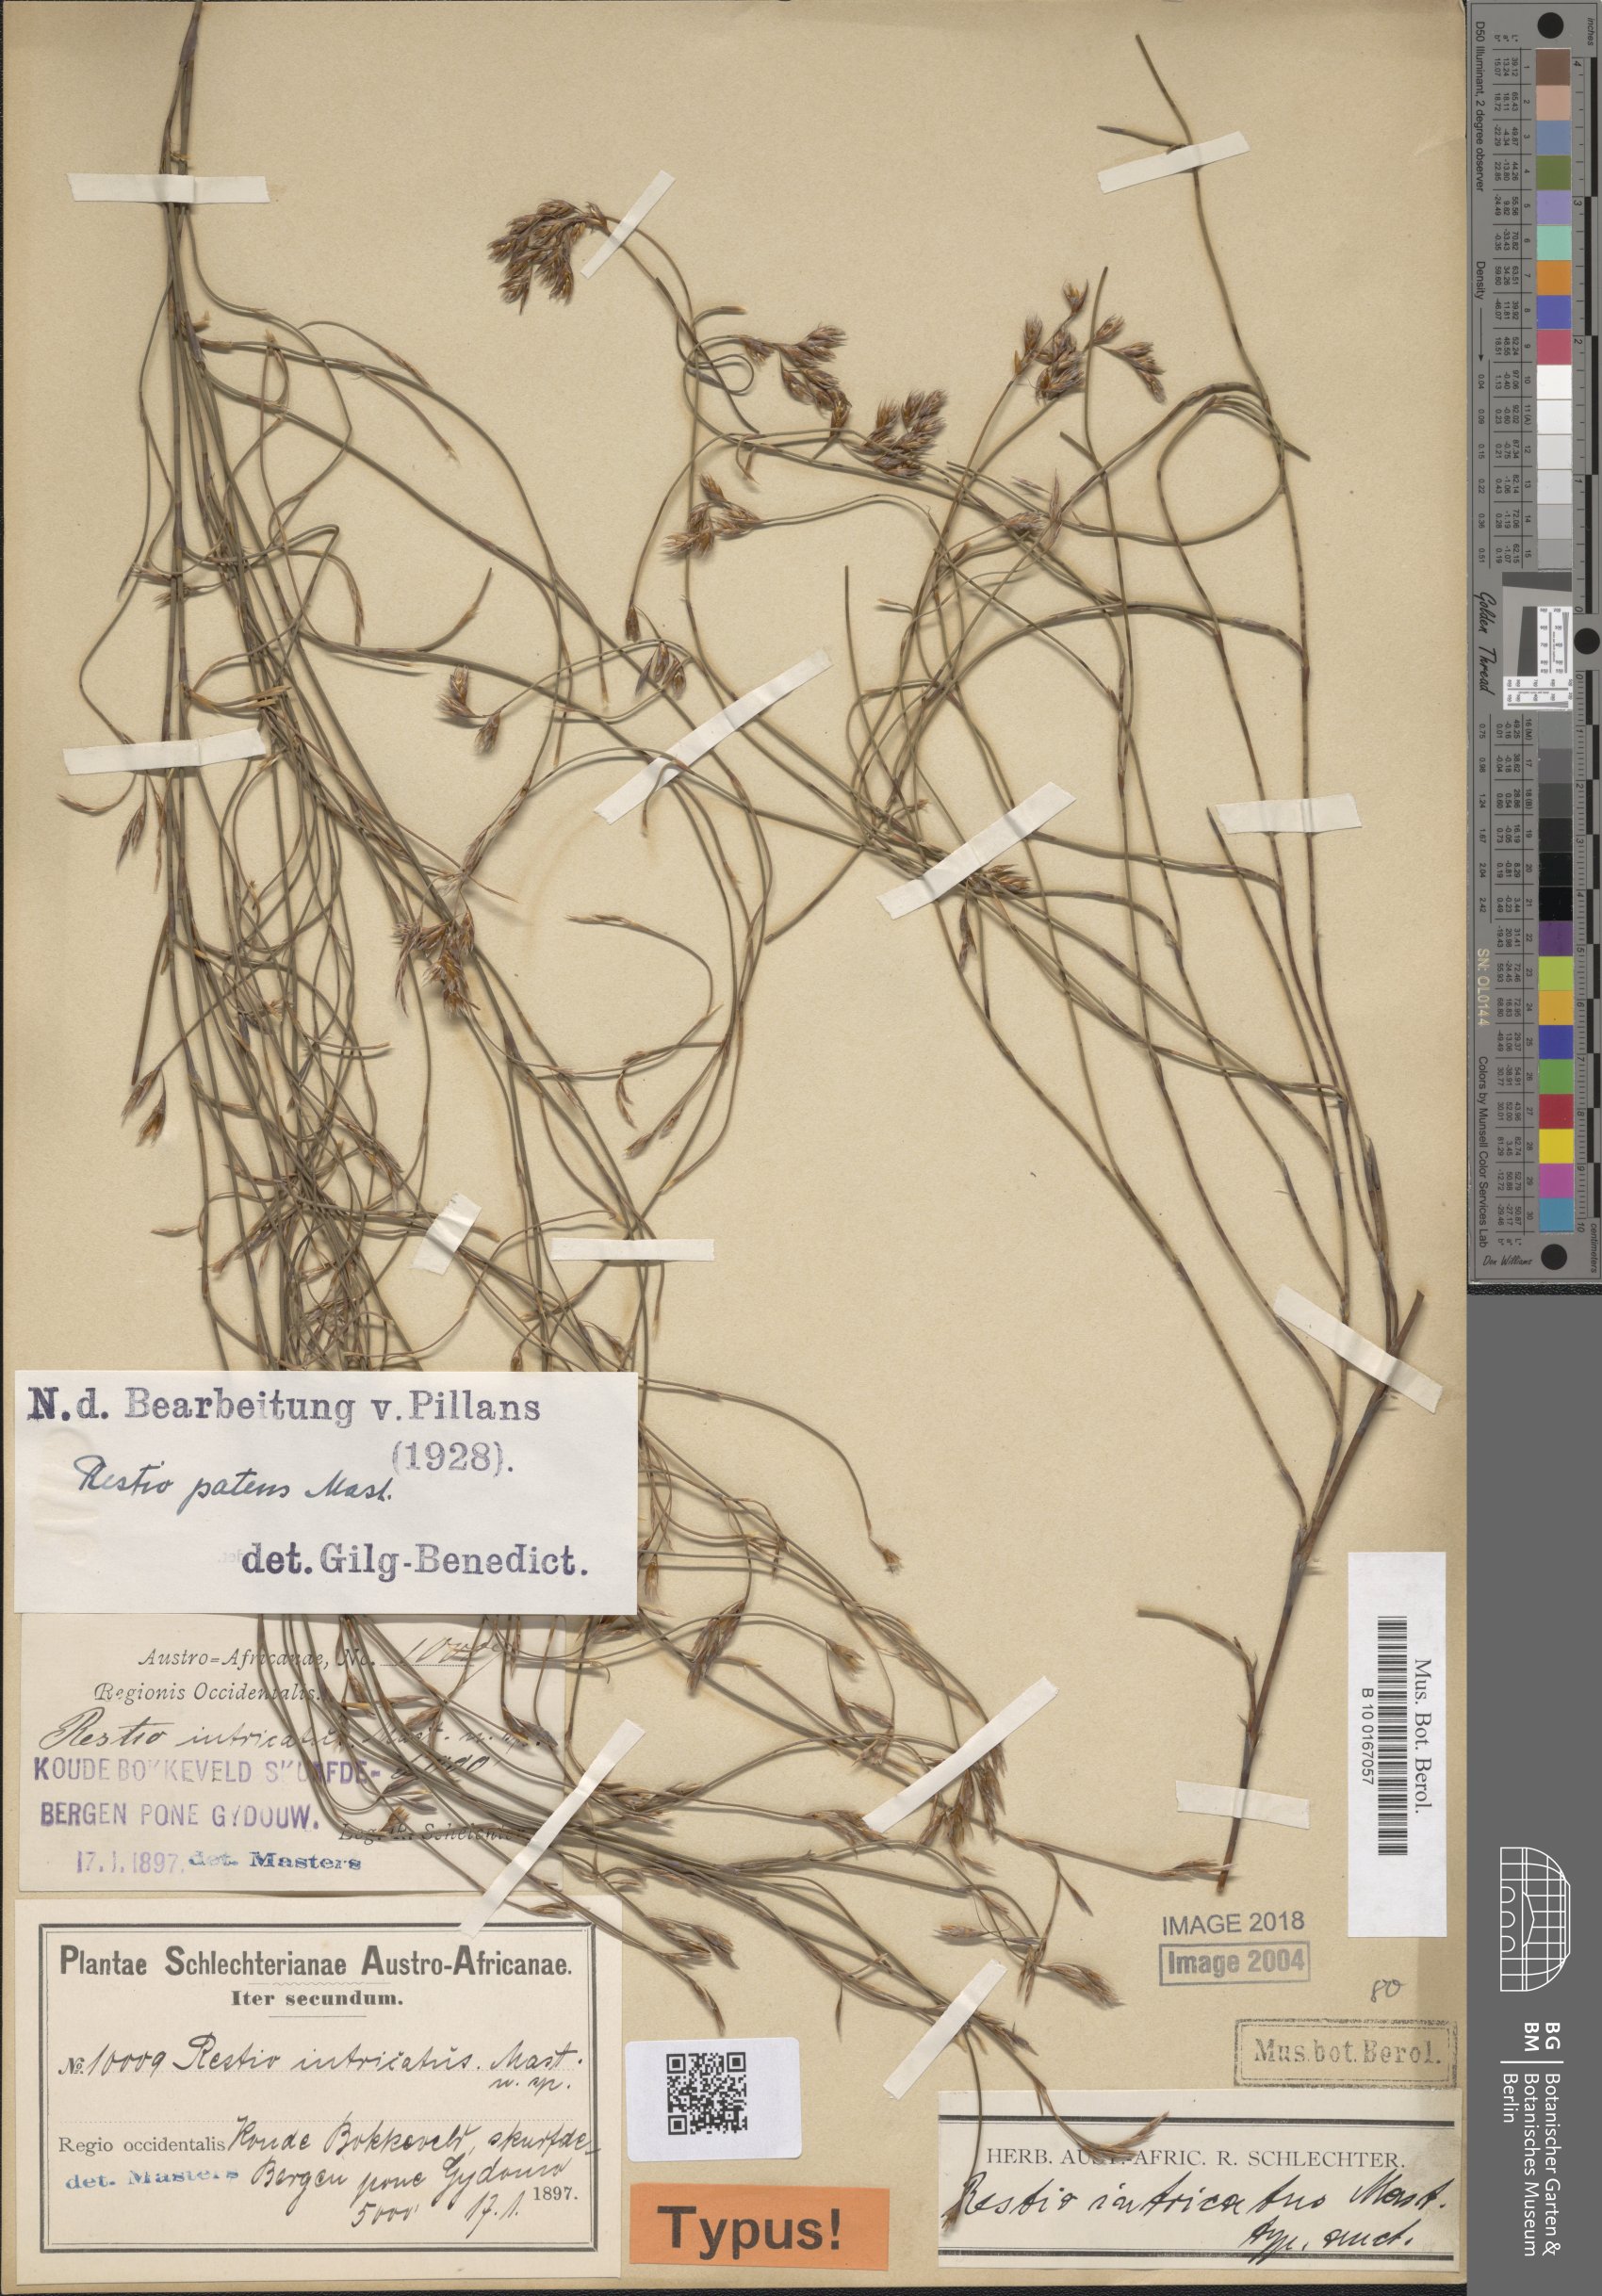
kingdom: Plantae
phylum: Tracheophyta
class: Liliopsida
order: Poales
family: Restionaceae
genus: Restio
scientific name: Restio patens
